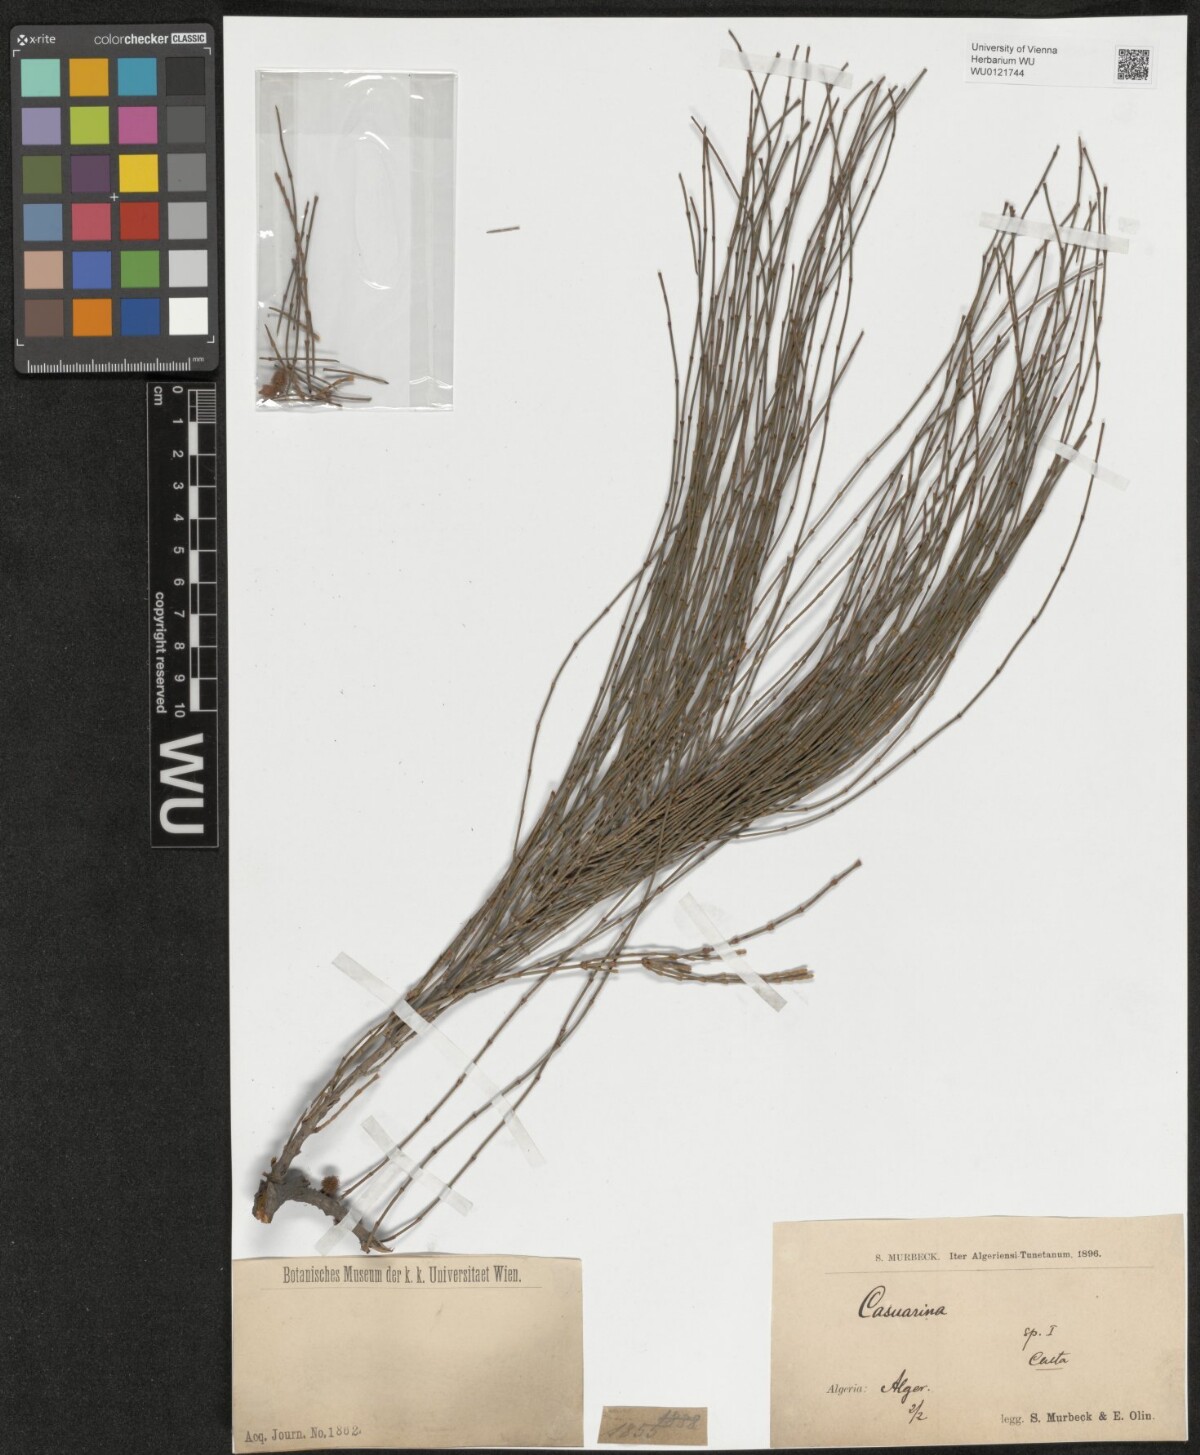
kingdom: Plantae
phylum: Tracheophyta
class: Magnoliopsida
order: Fagales
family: Casuarinaceae
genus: Casuarina
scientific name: Casuarina
